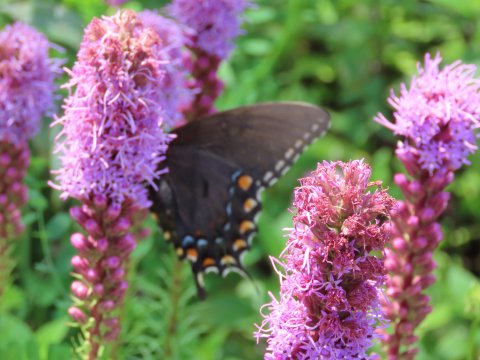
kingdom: Animalia
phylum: Arthropoda
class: Insecta
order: Lepidoptera
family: Papilionidae
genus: Pterourus
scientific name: Pterourus glaucus
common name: Eastern Tiger Swallowtail
